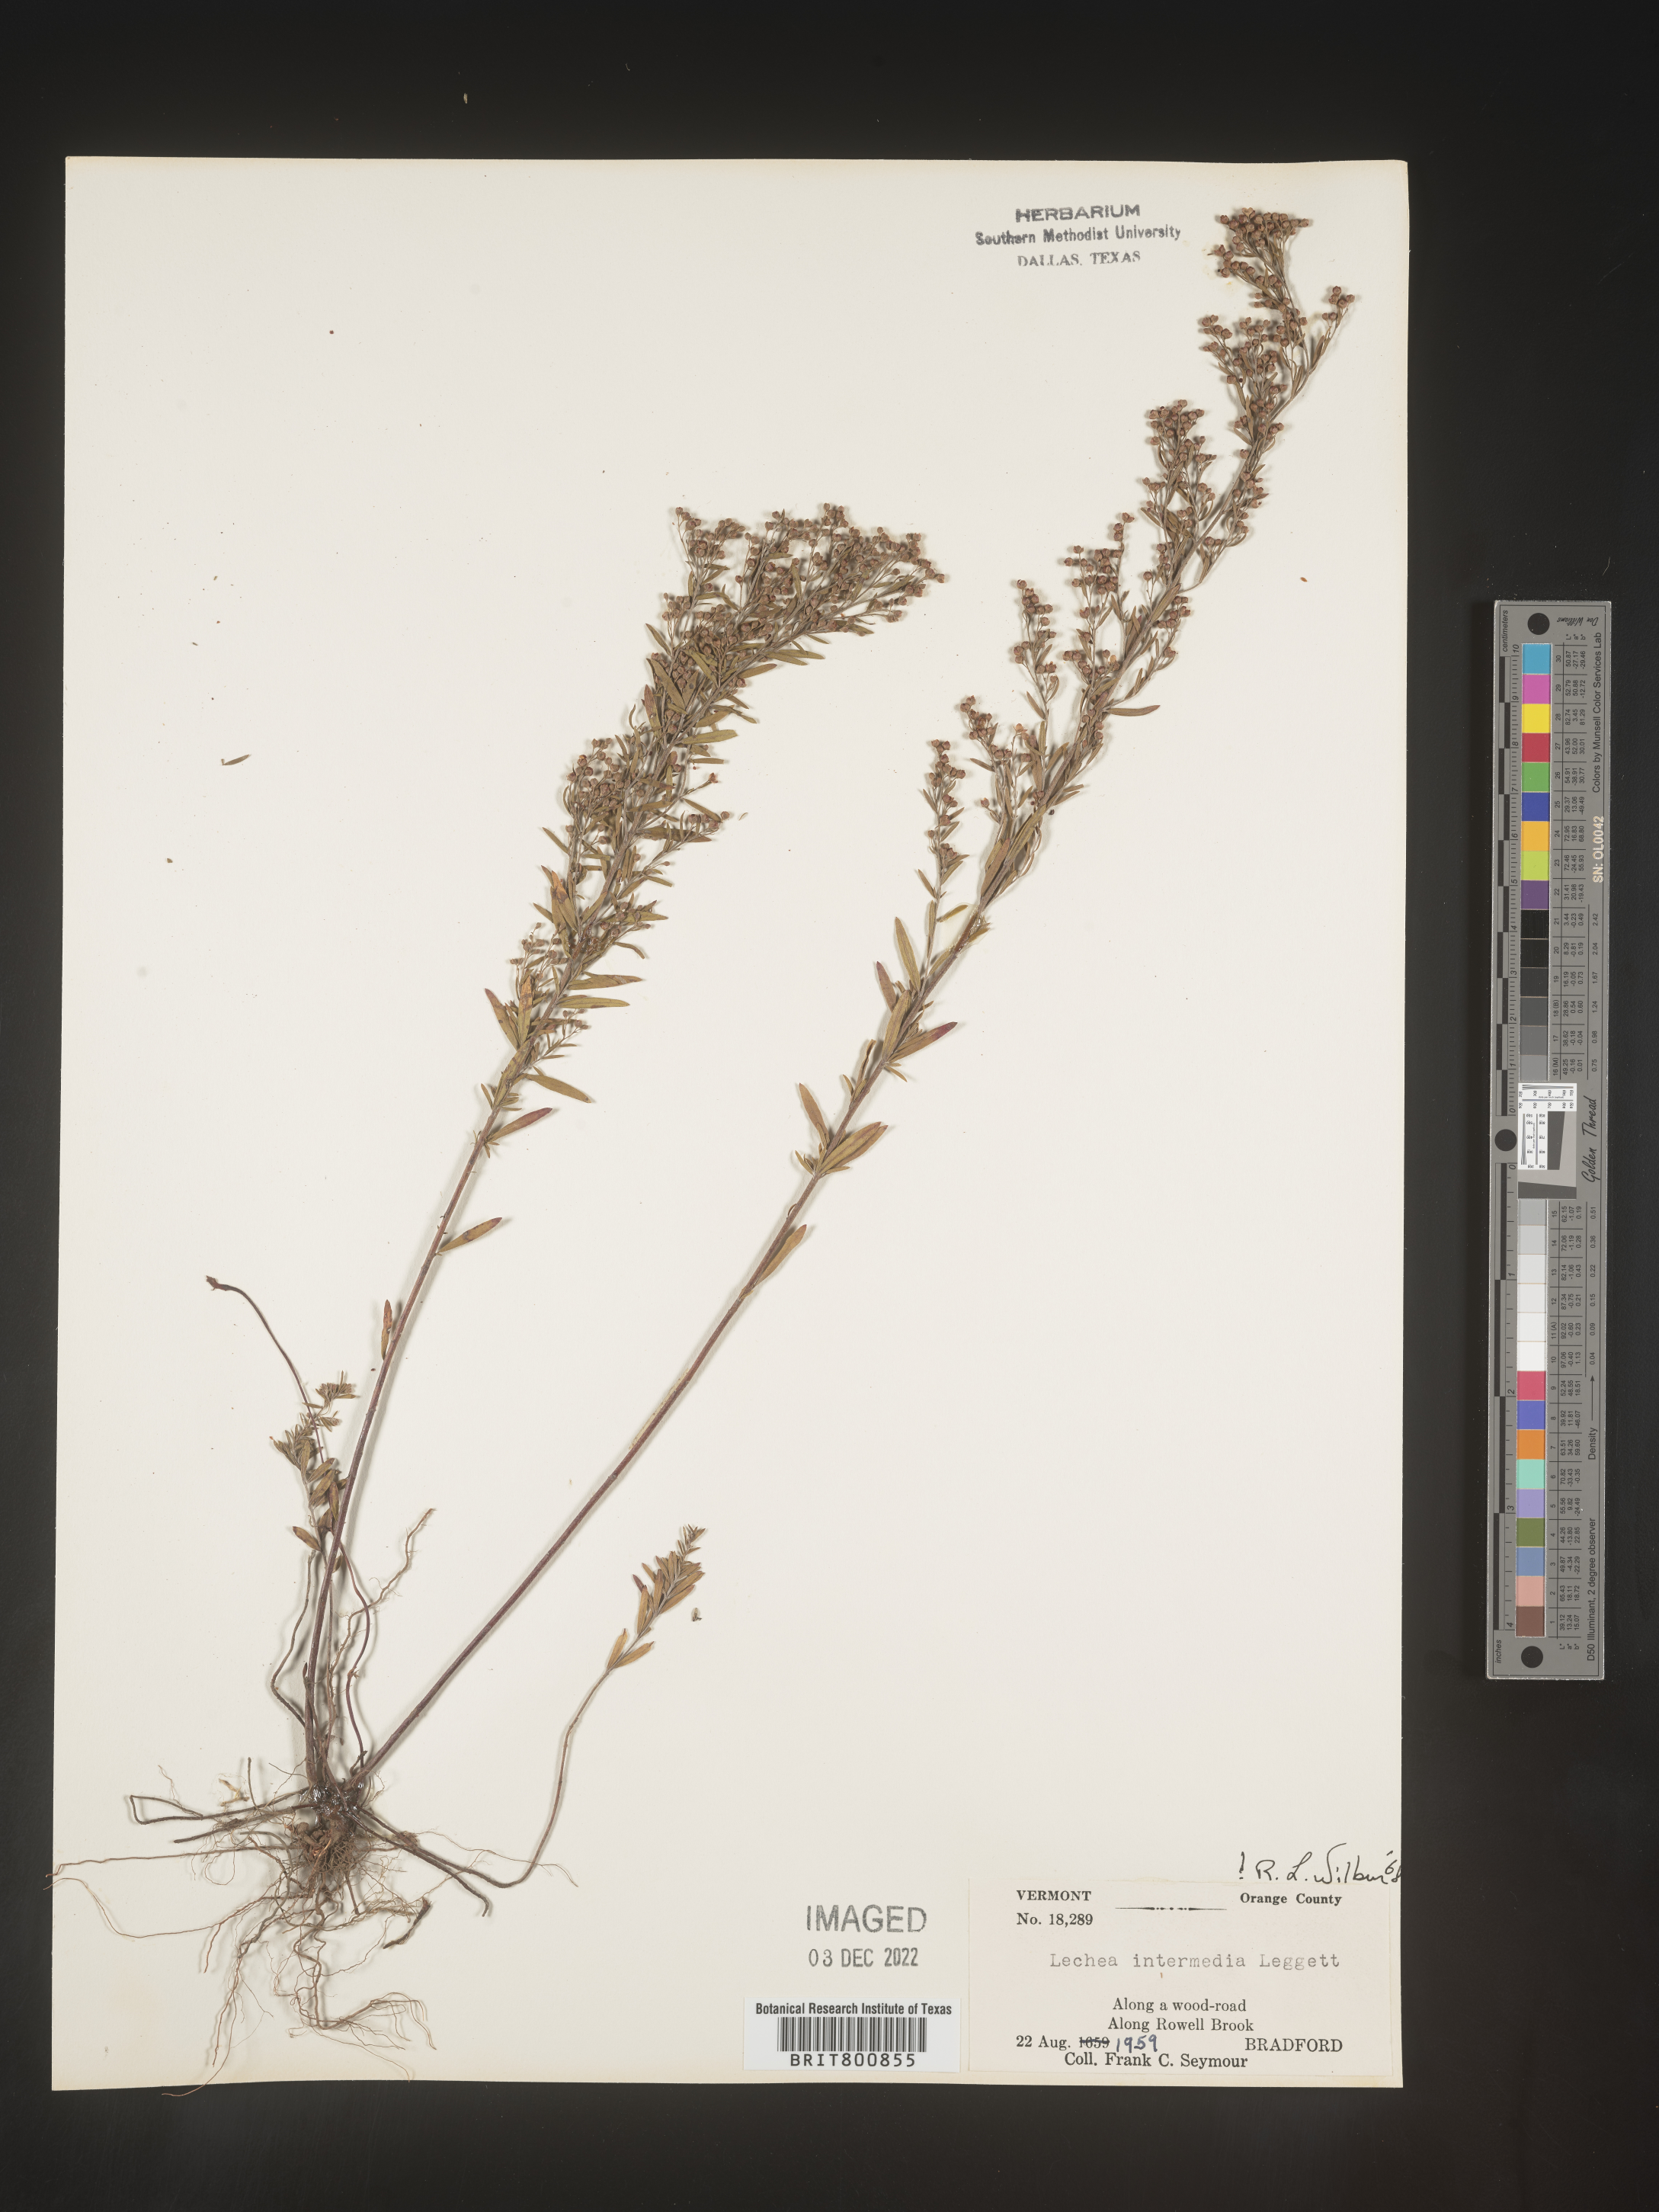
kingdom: Plantae
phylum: Tracheophyta
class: Magnoliopsida
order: Malvales
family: Cistaceae
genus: Lechea
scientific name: Lechea intermedia
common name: Intermediate pinweed
